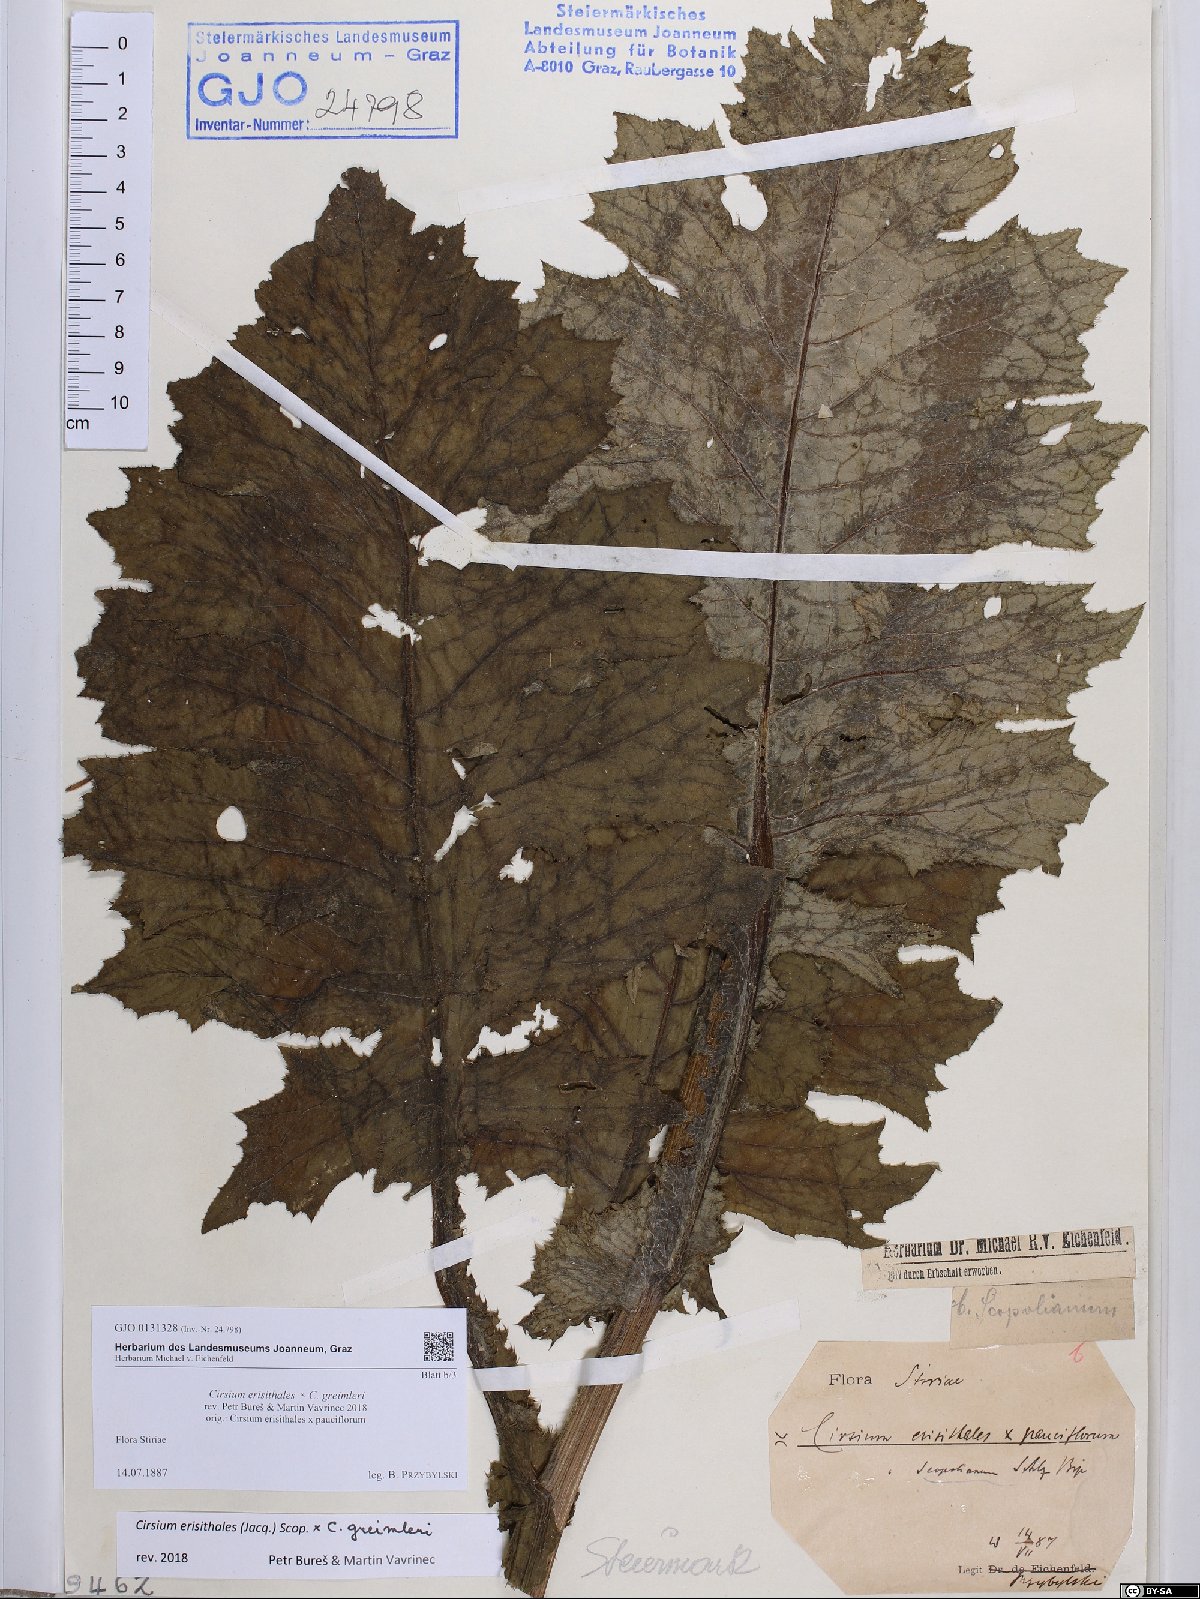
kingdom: Plantae
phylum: Tracheophyta
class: Magnoliopsida
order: Asterales
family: Asteraceae
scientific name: Asteraceae
